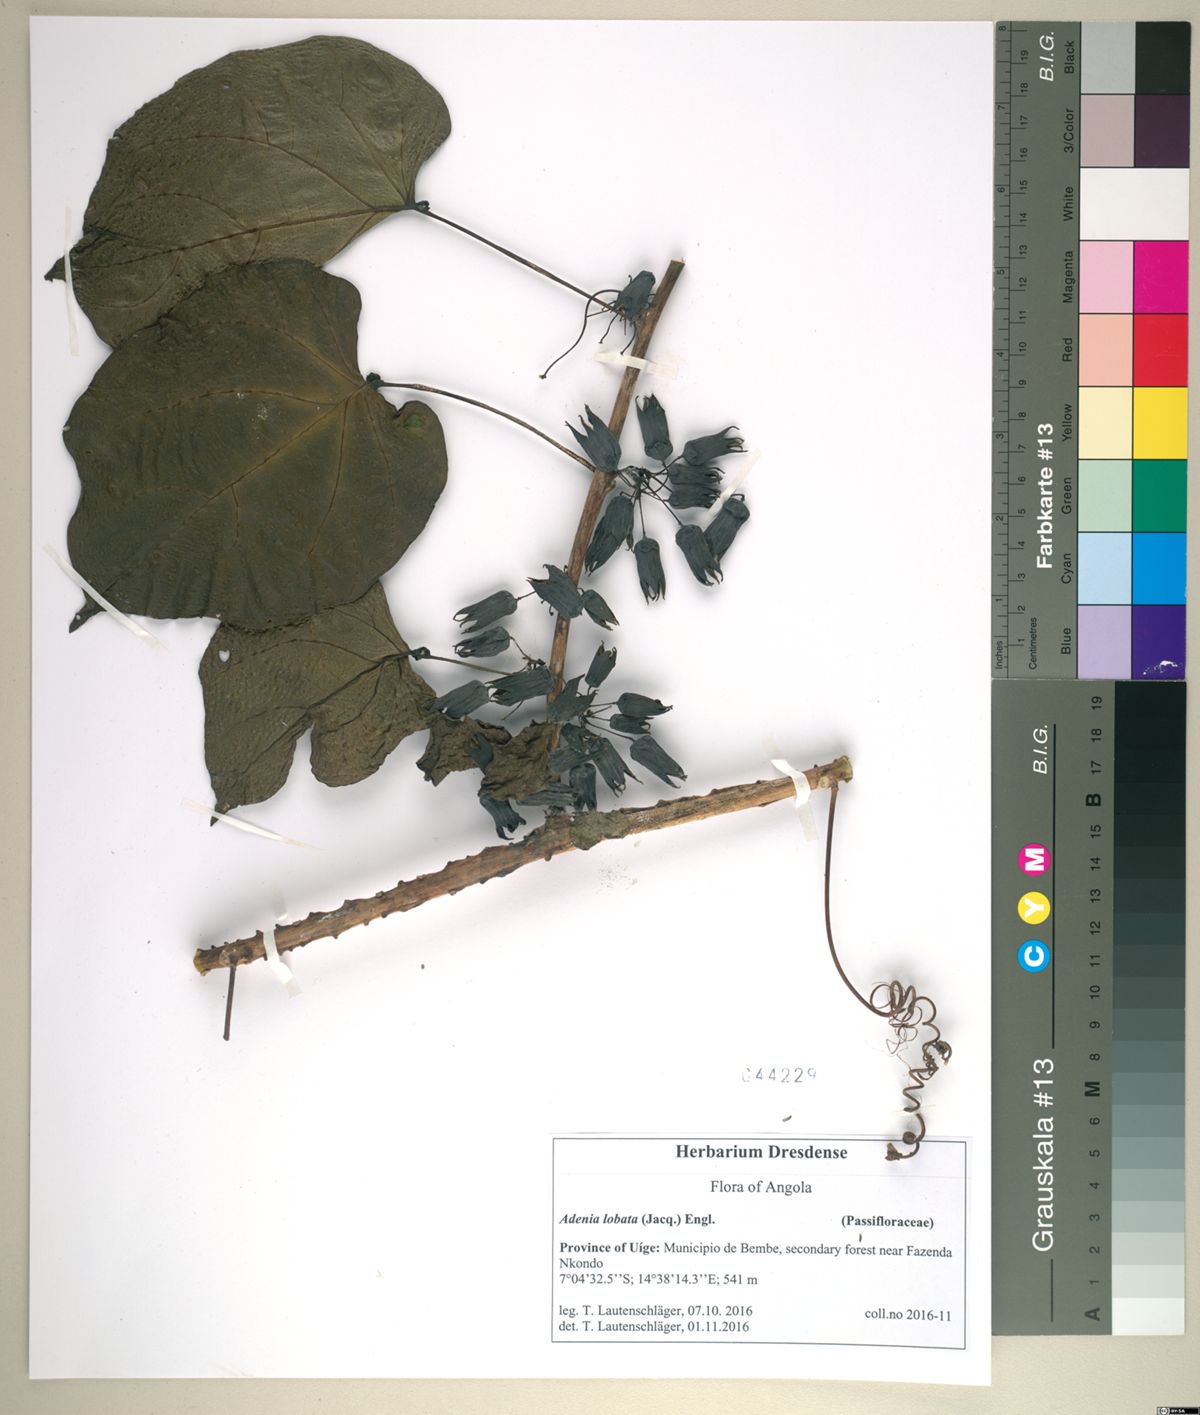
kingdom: Plantae
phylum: Tracheophyta
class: Magnoliopsida
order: Malpighiales
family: Passifloraceae
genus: Adenia
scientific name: Adenia lobata
